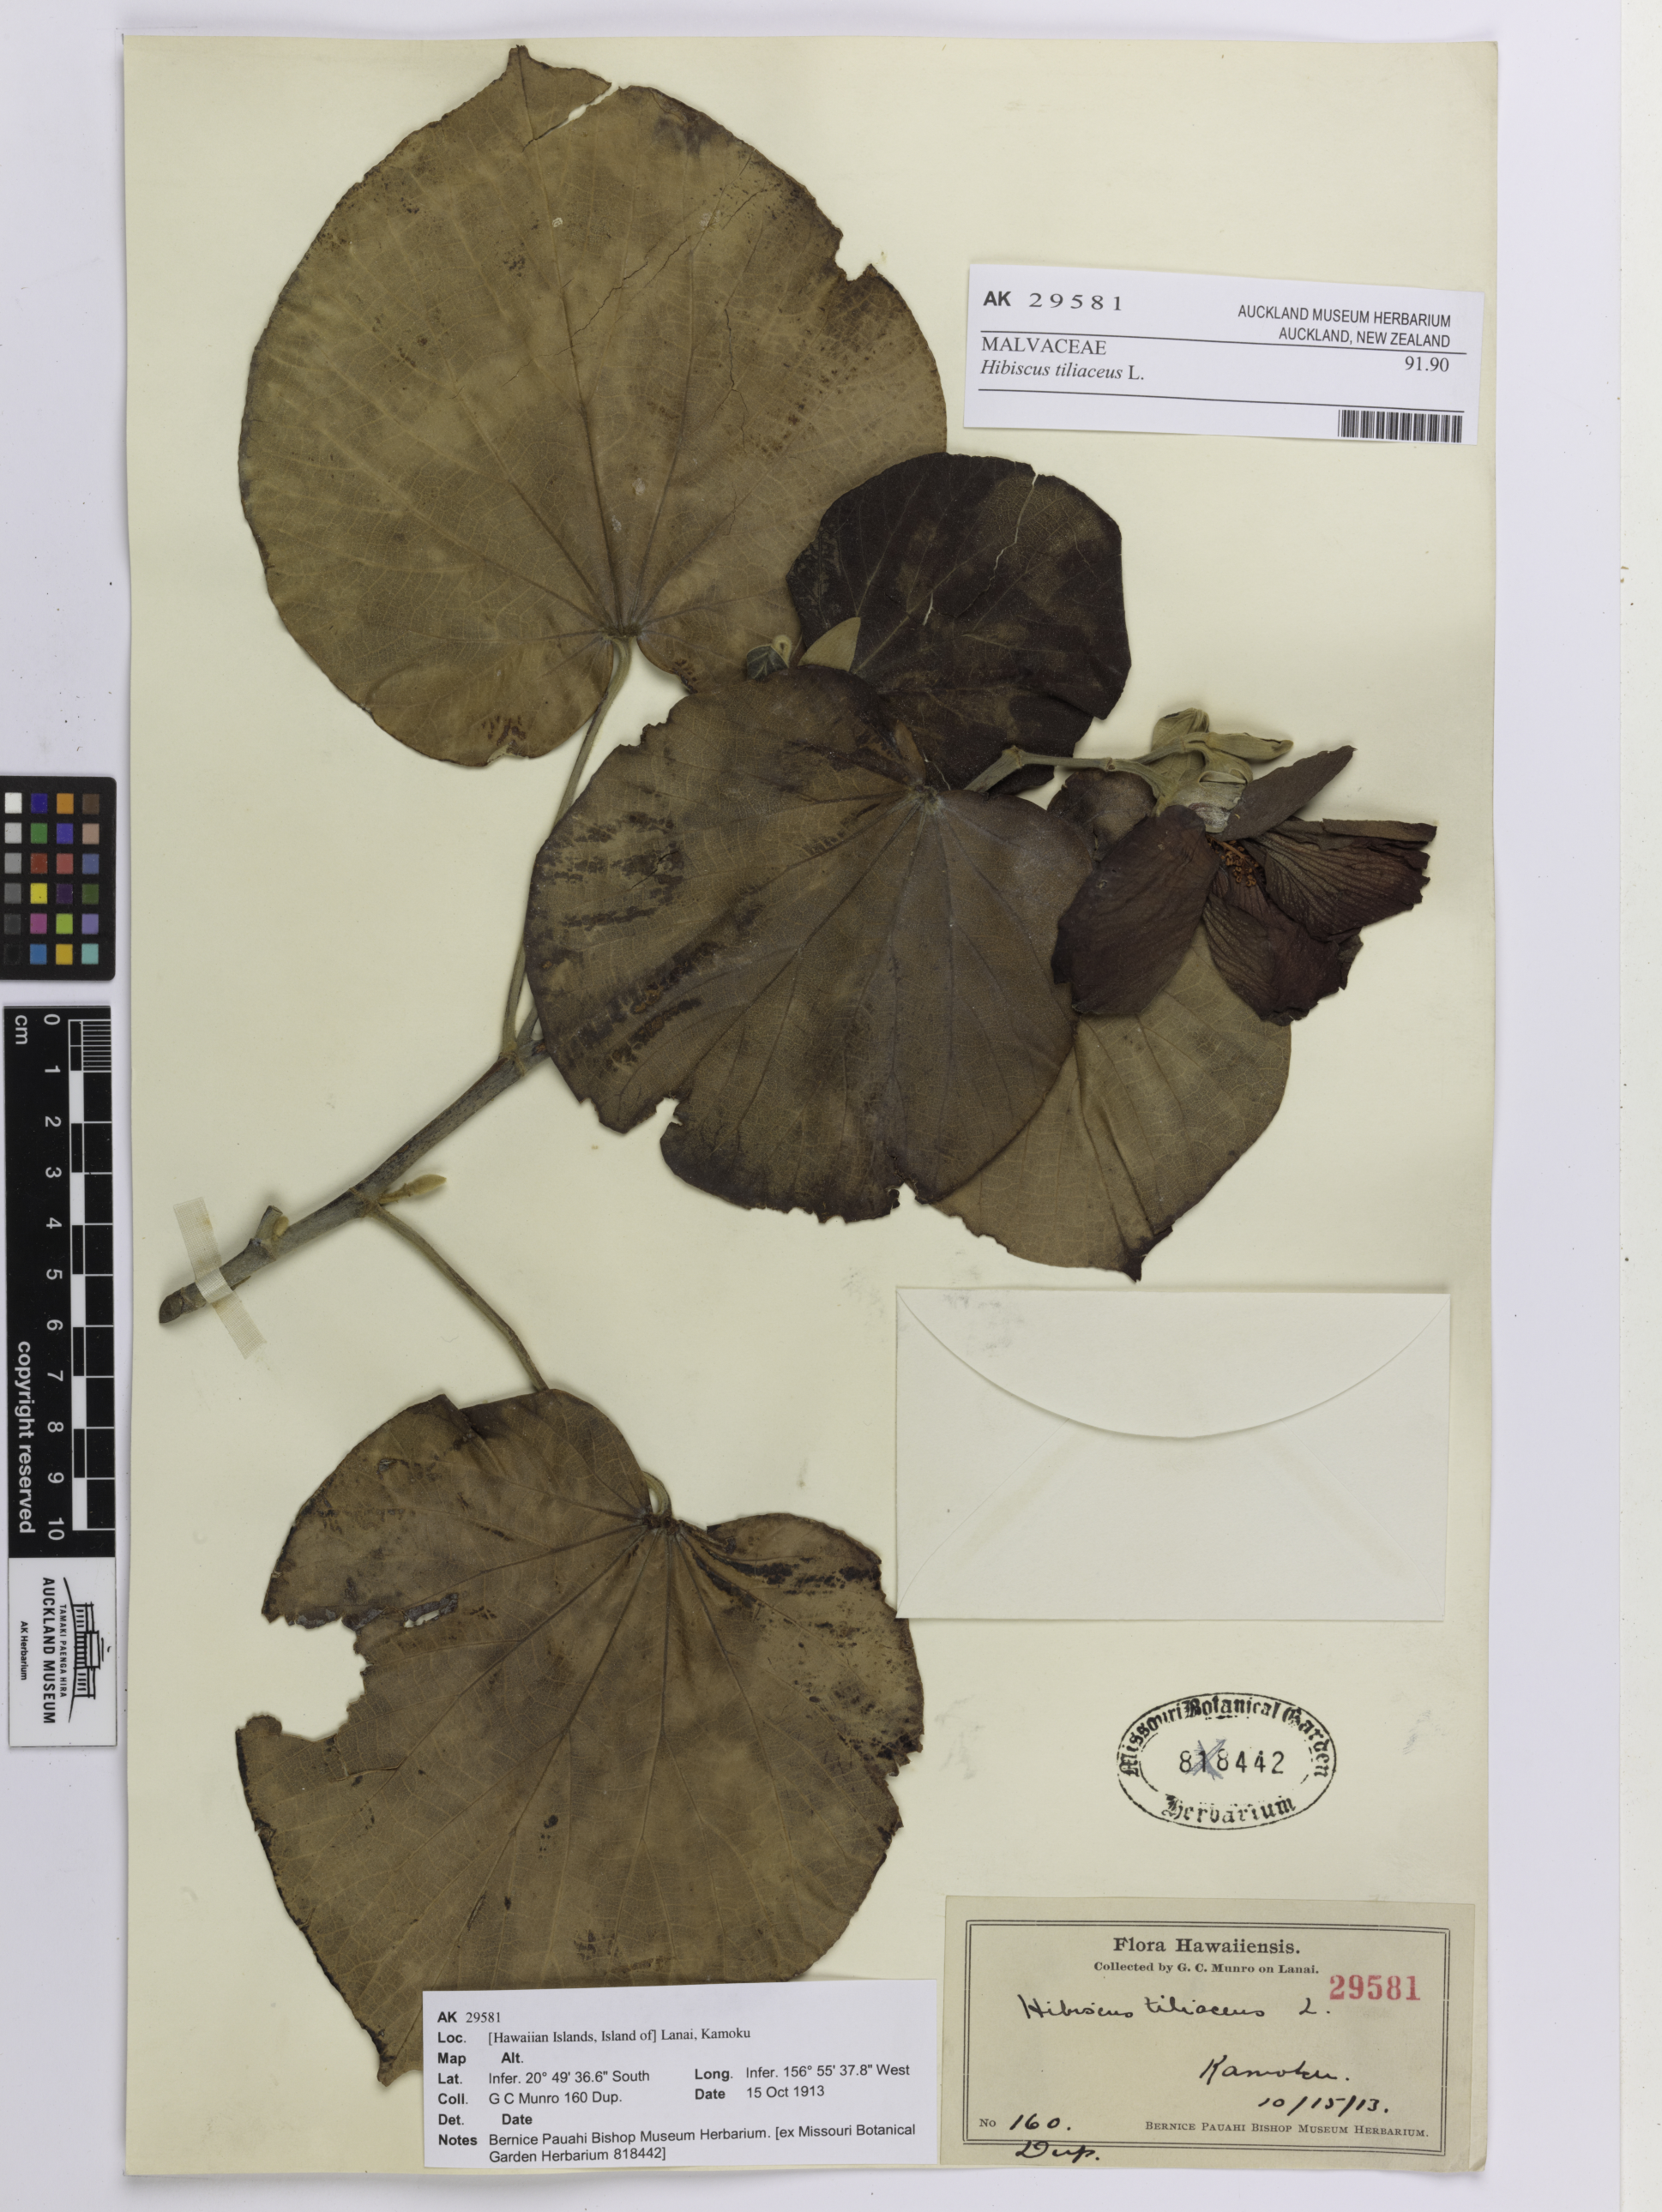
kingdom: Plantae
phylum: Tracheophyta
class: Magnoliopsida
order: Malvales
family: Malvaceae
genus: Talipariti
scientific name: Talipariti tiliaceum
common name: Sea hibiscus
